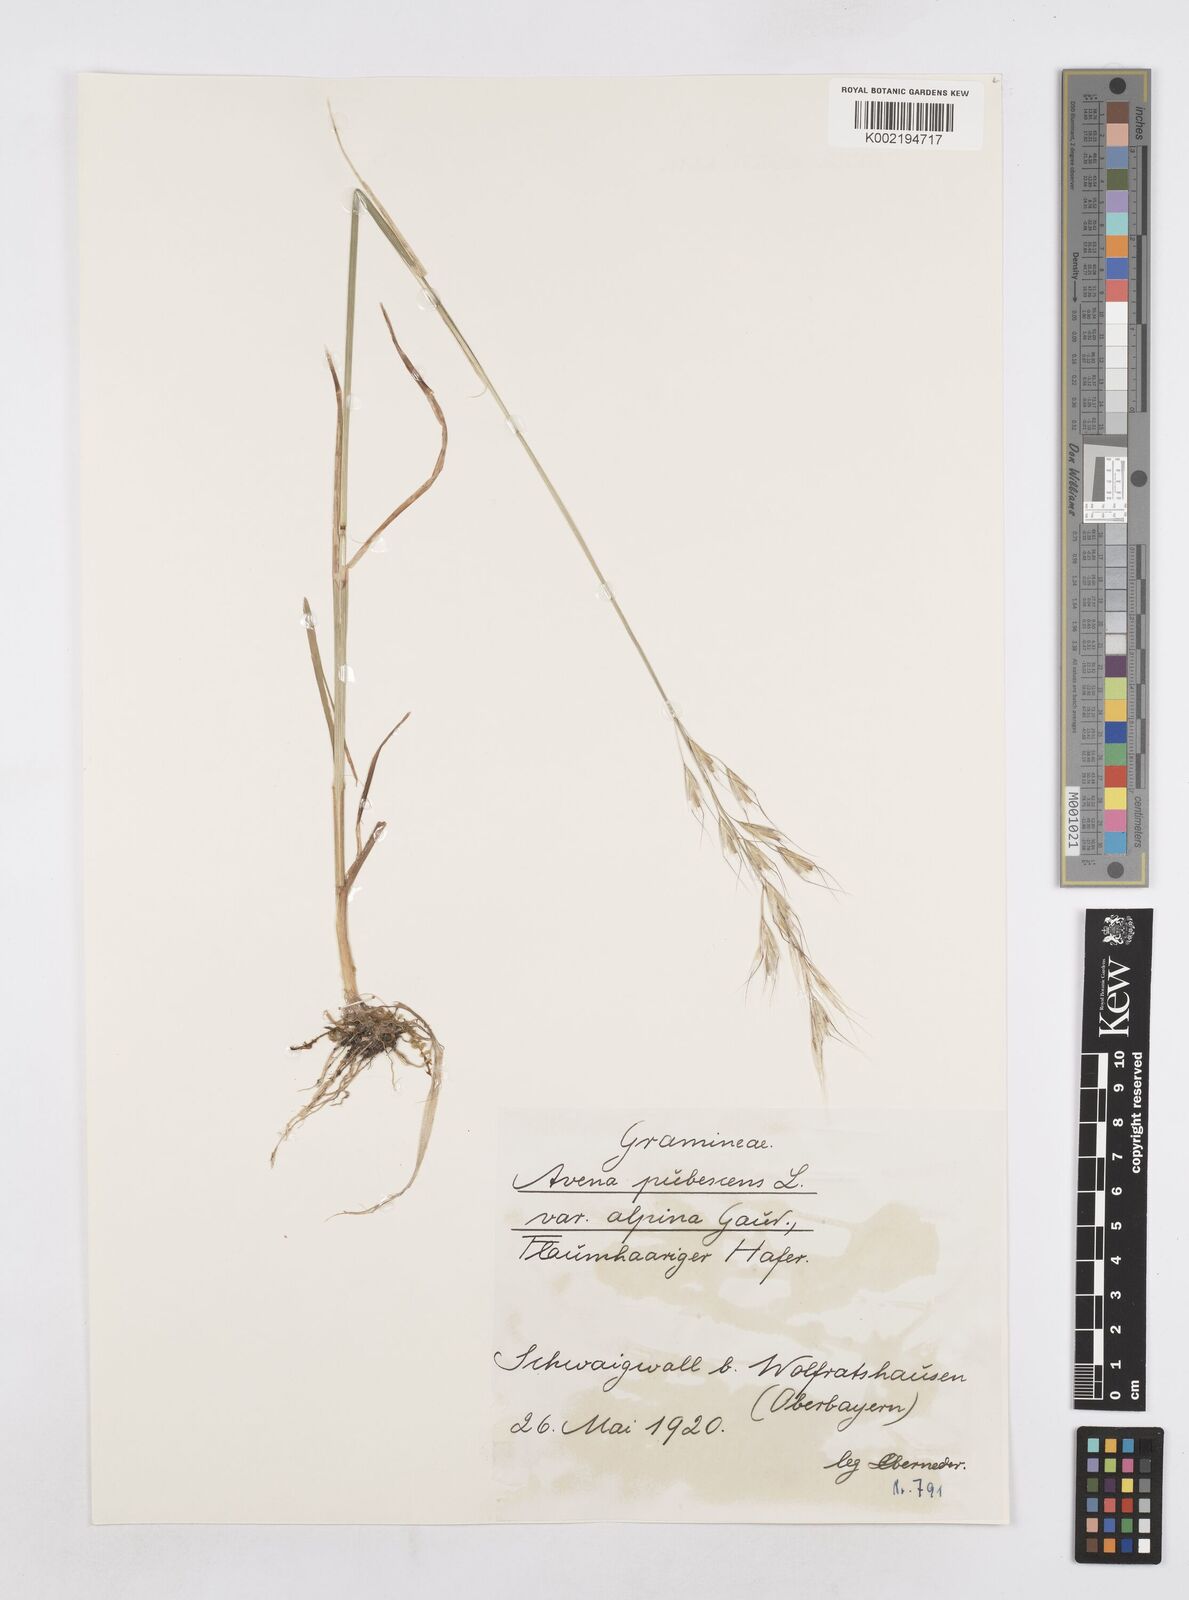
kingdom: Plantae
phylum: Tracheophyta
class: Liliopsida
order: Poales
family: Poaceae
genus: Avenula
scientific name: Avenula pubescens
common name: Downy alpine oatgrass
